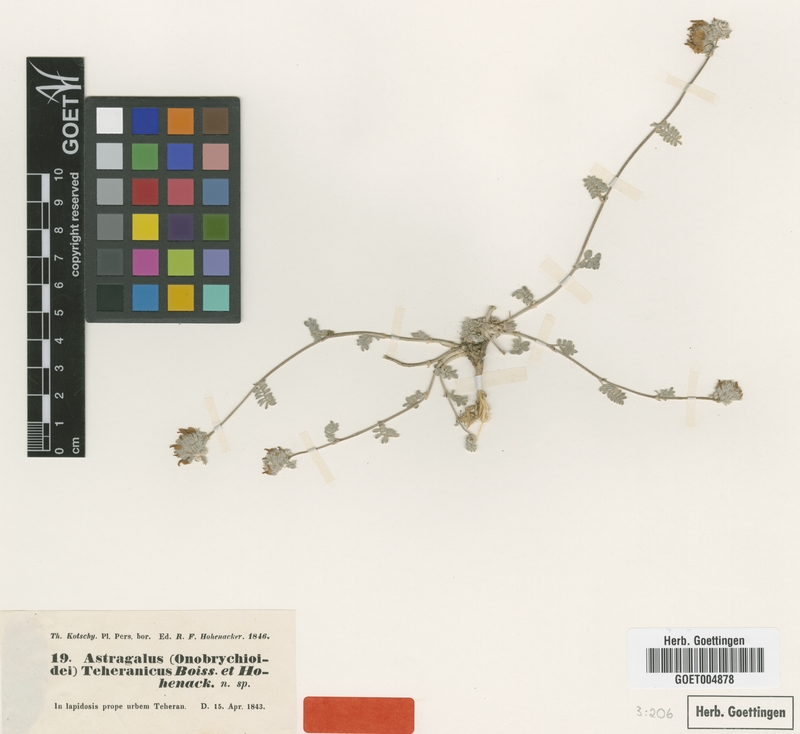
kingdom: Plantae
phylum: Tracheophyta
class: Magnoliopsida
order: Fabales
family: Fabaceae
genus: Astragalus
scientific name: Astragalus teheranicus
